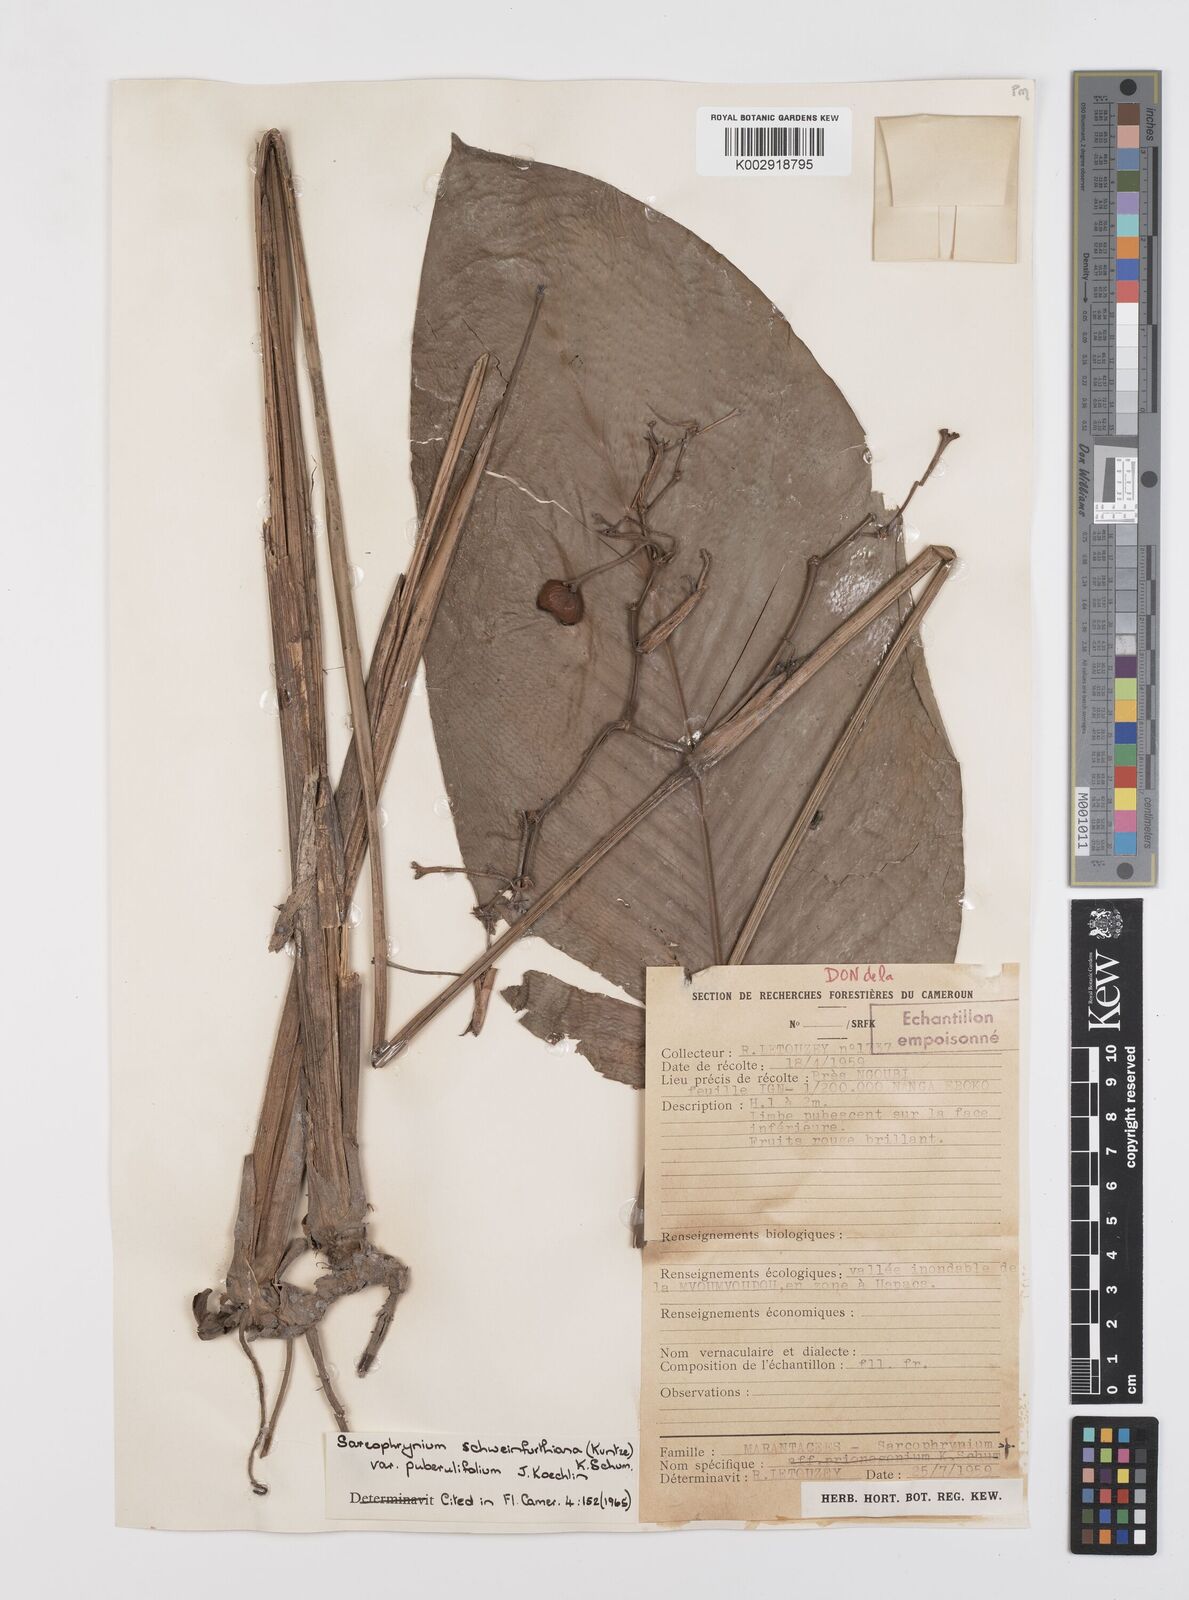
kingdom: Plantae
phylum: Tracheophyta
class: Liliopsida
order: Zingiberales
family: Marantaceae
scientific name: Marantaceae
